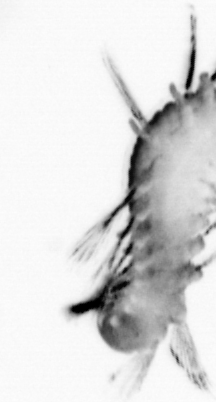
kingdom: Animalia
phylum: Annelida
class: Polychaeta
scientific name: Polychaeta
